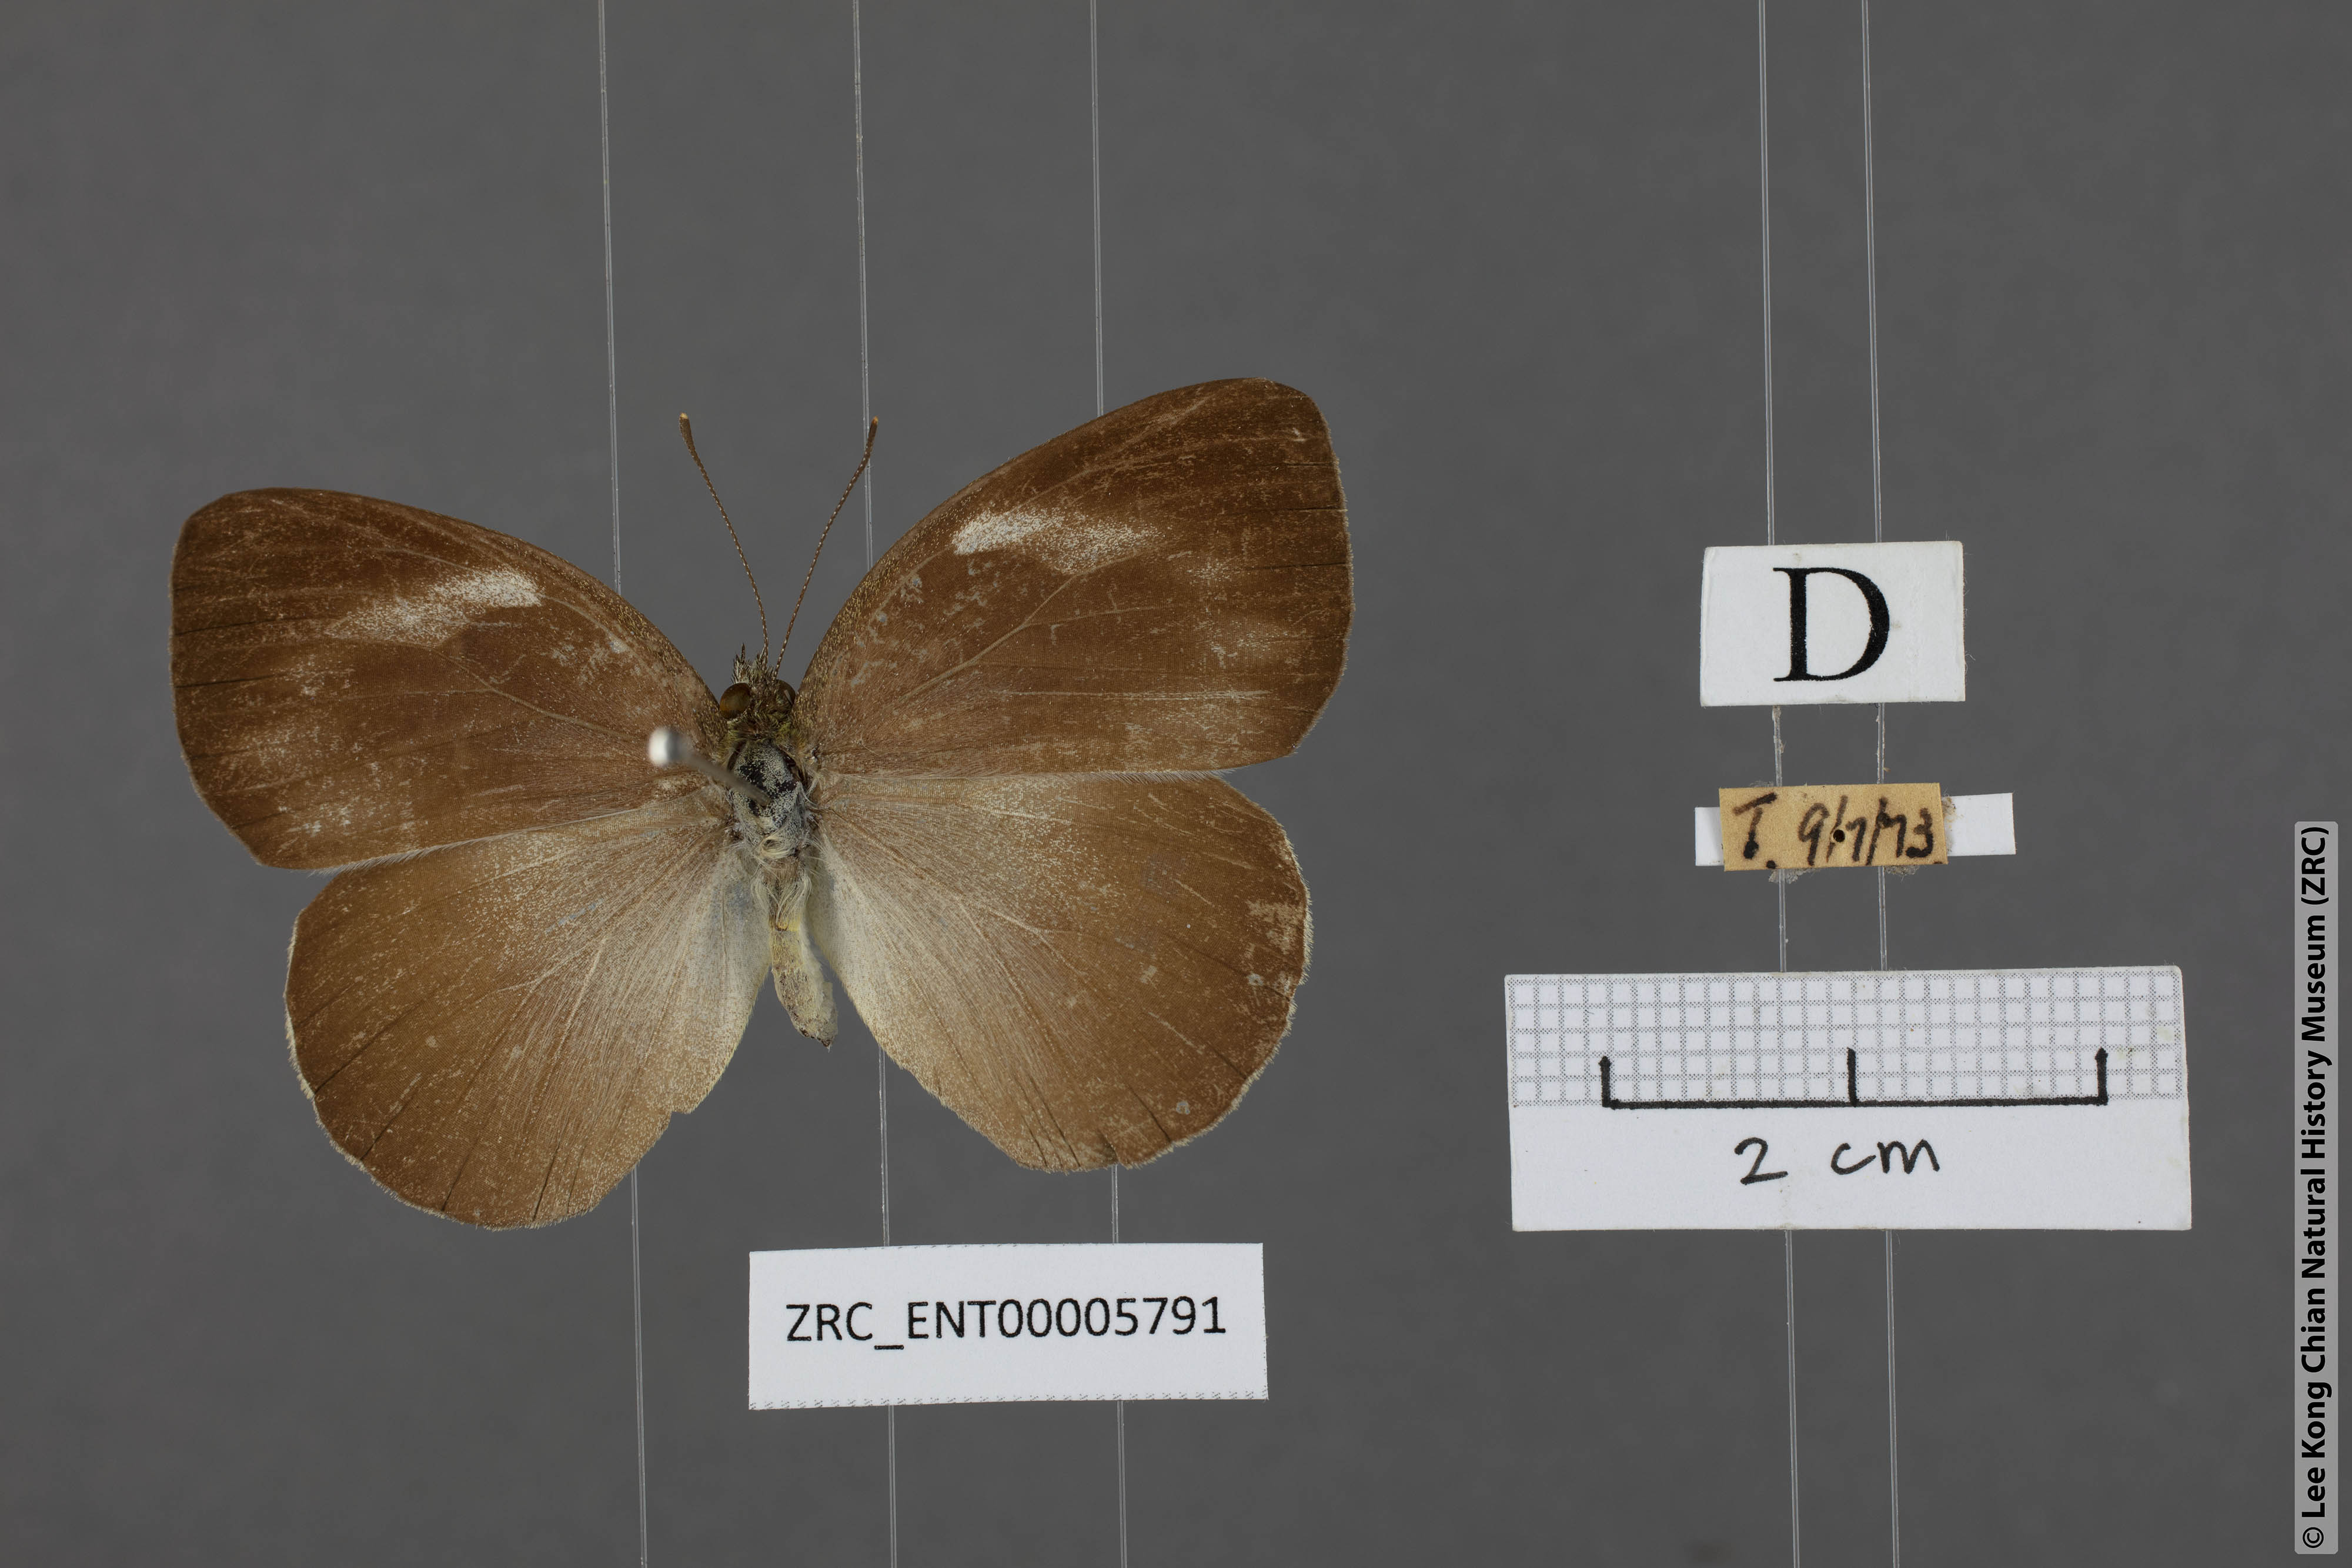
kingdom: Animalia
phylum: Arthropoda
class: Insecta
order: Lepidoptera
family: Pieridae
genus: Phrissura
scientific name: Phrissura aegis
